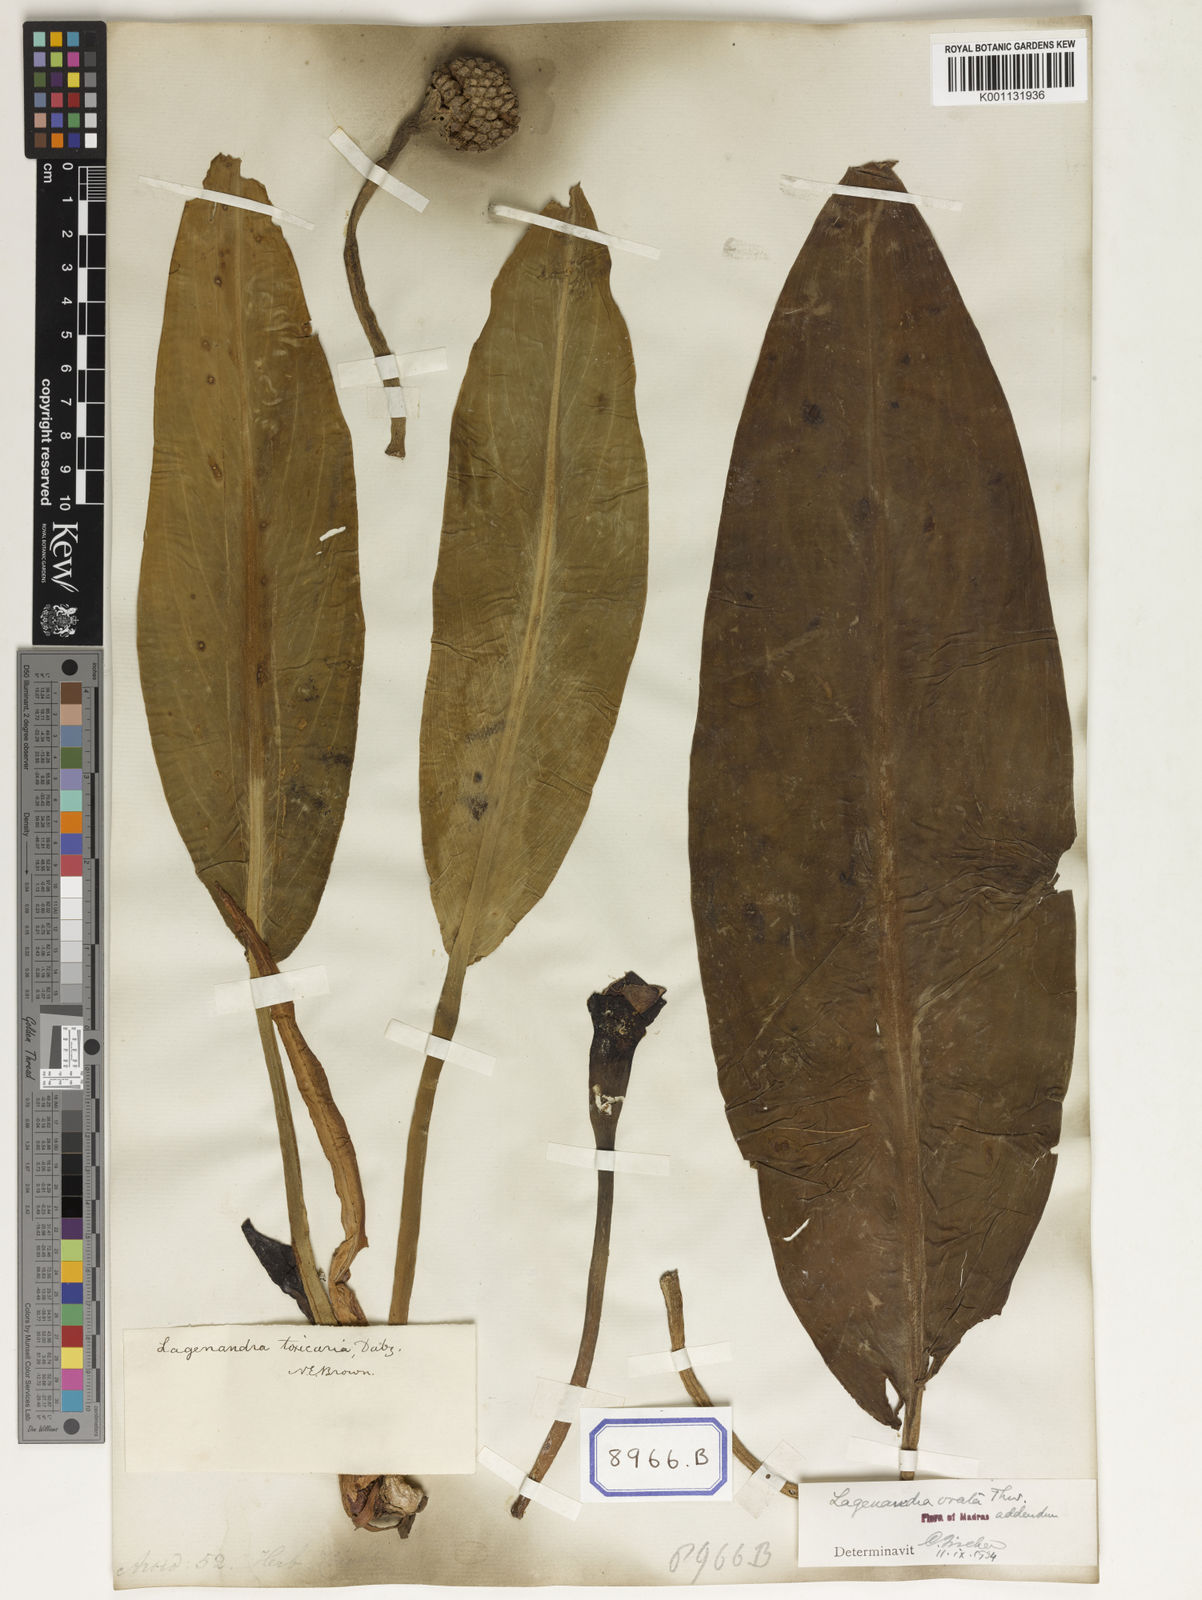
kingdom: Plantae
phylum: Tracheophyta
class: Liliopsida
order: Alismatales
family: Araceae
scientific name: Araceae
